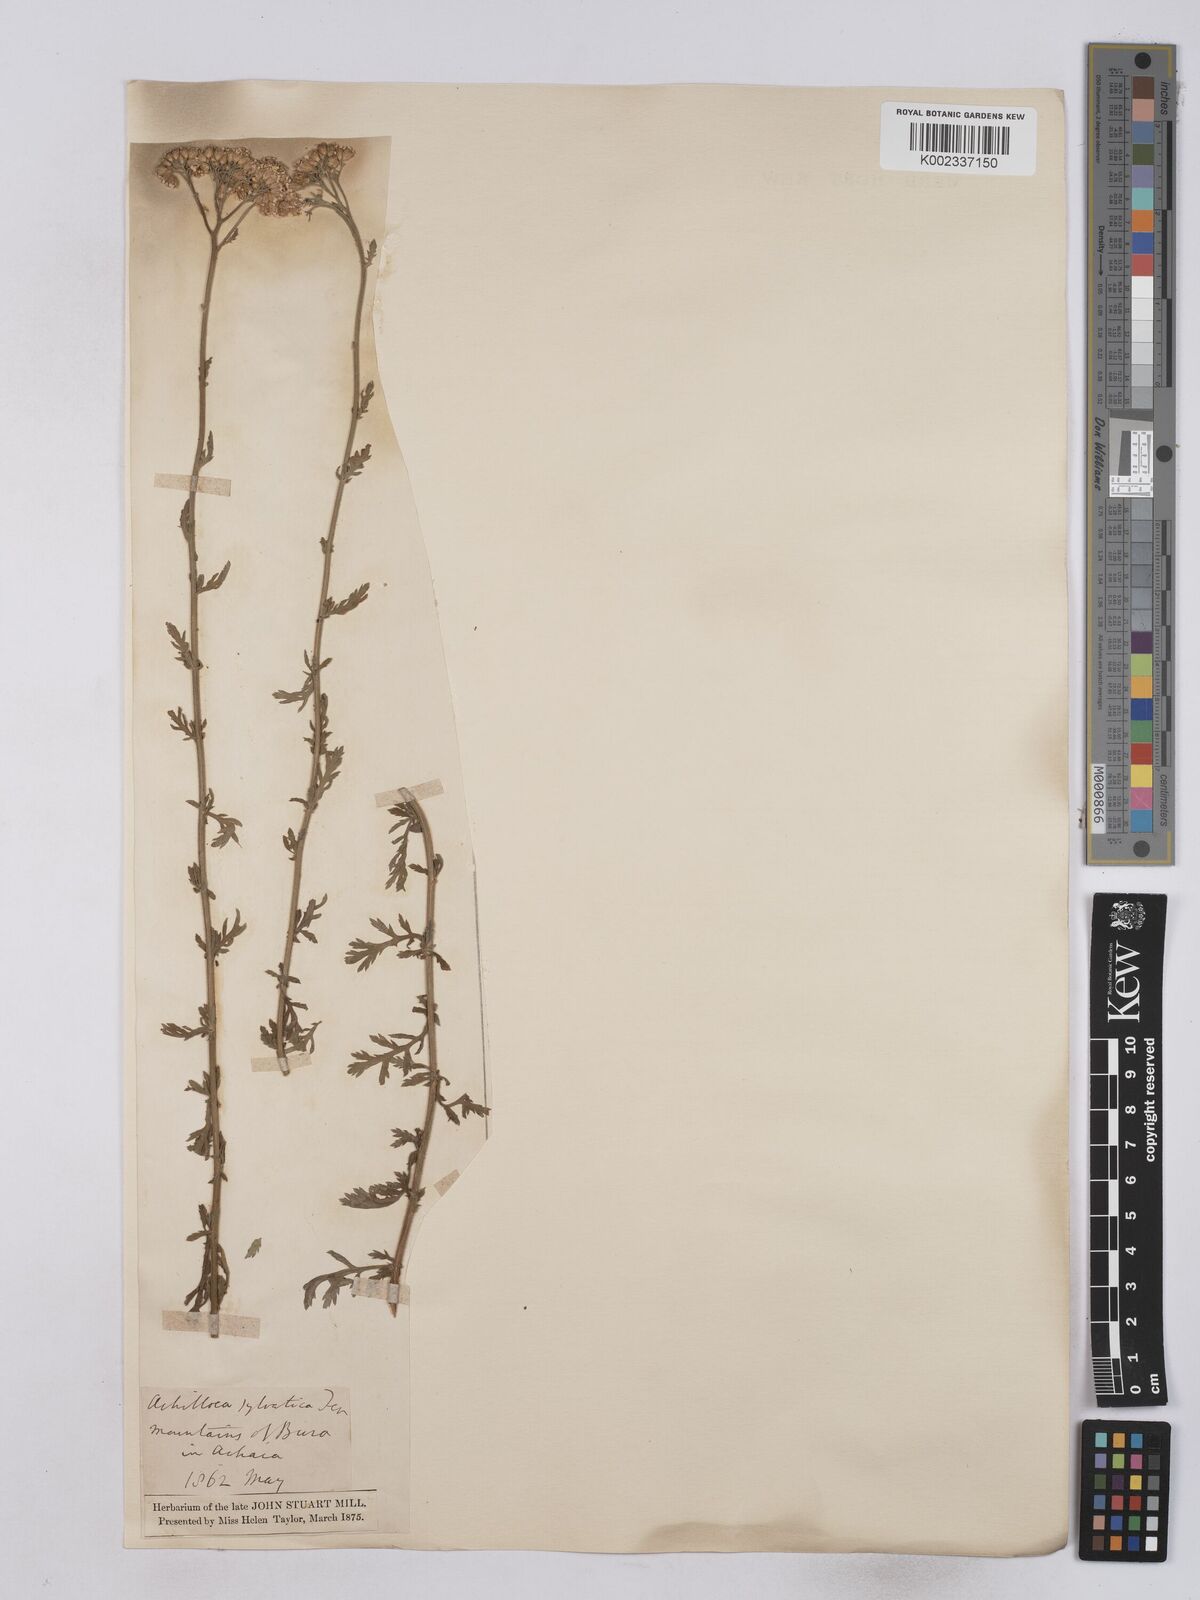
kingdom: Plantae
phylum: Tracheophyta
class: Magnoliopsida
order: Asterales
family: Asteraceae
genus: Achillea
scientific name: Achillea ligustica
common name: Southern yarrow
